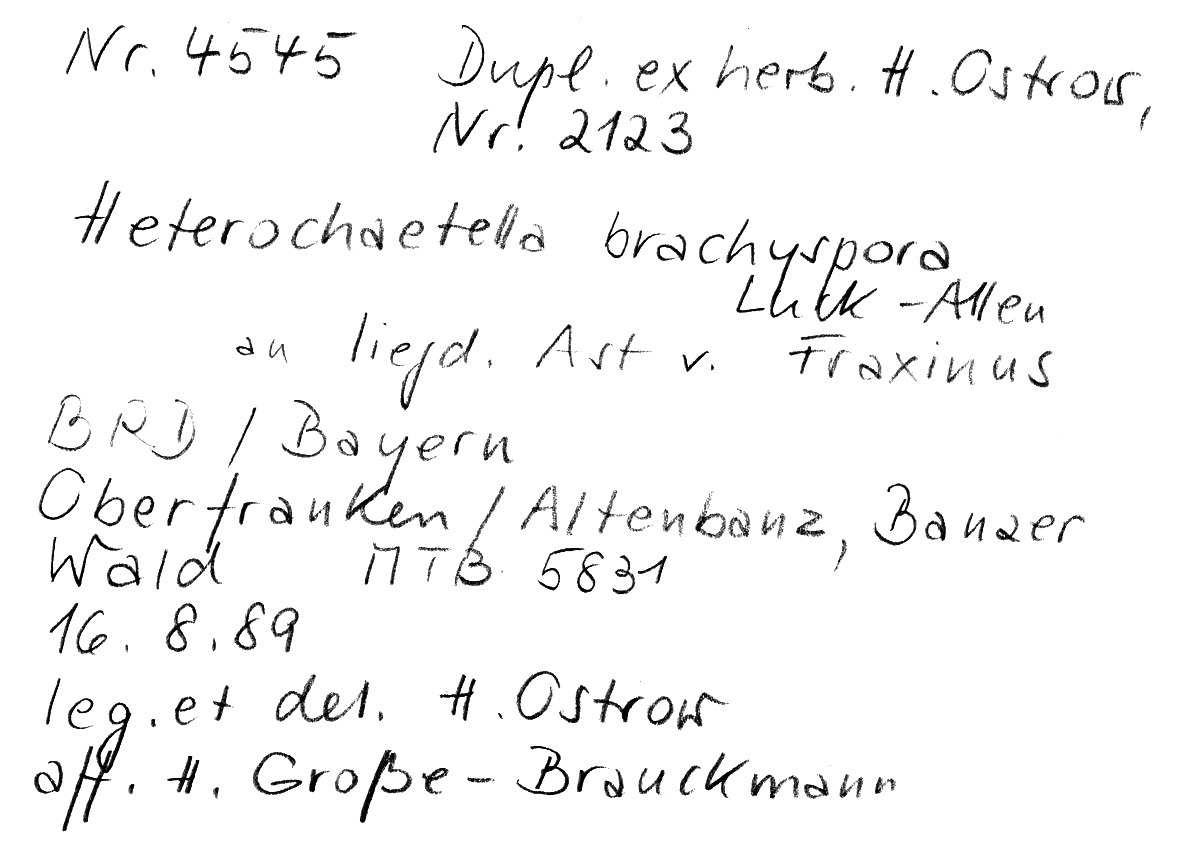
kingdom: Fungi
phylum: Basidiomycota
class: Agaricomycetes
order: Auriculariales
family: Hyaloriaceae
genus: Protomerulius
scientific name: Protomerulius dubius
